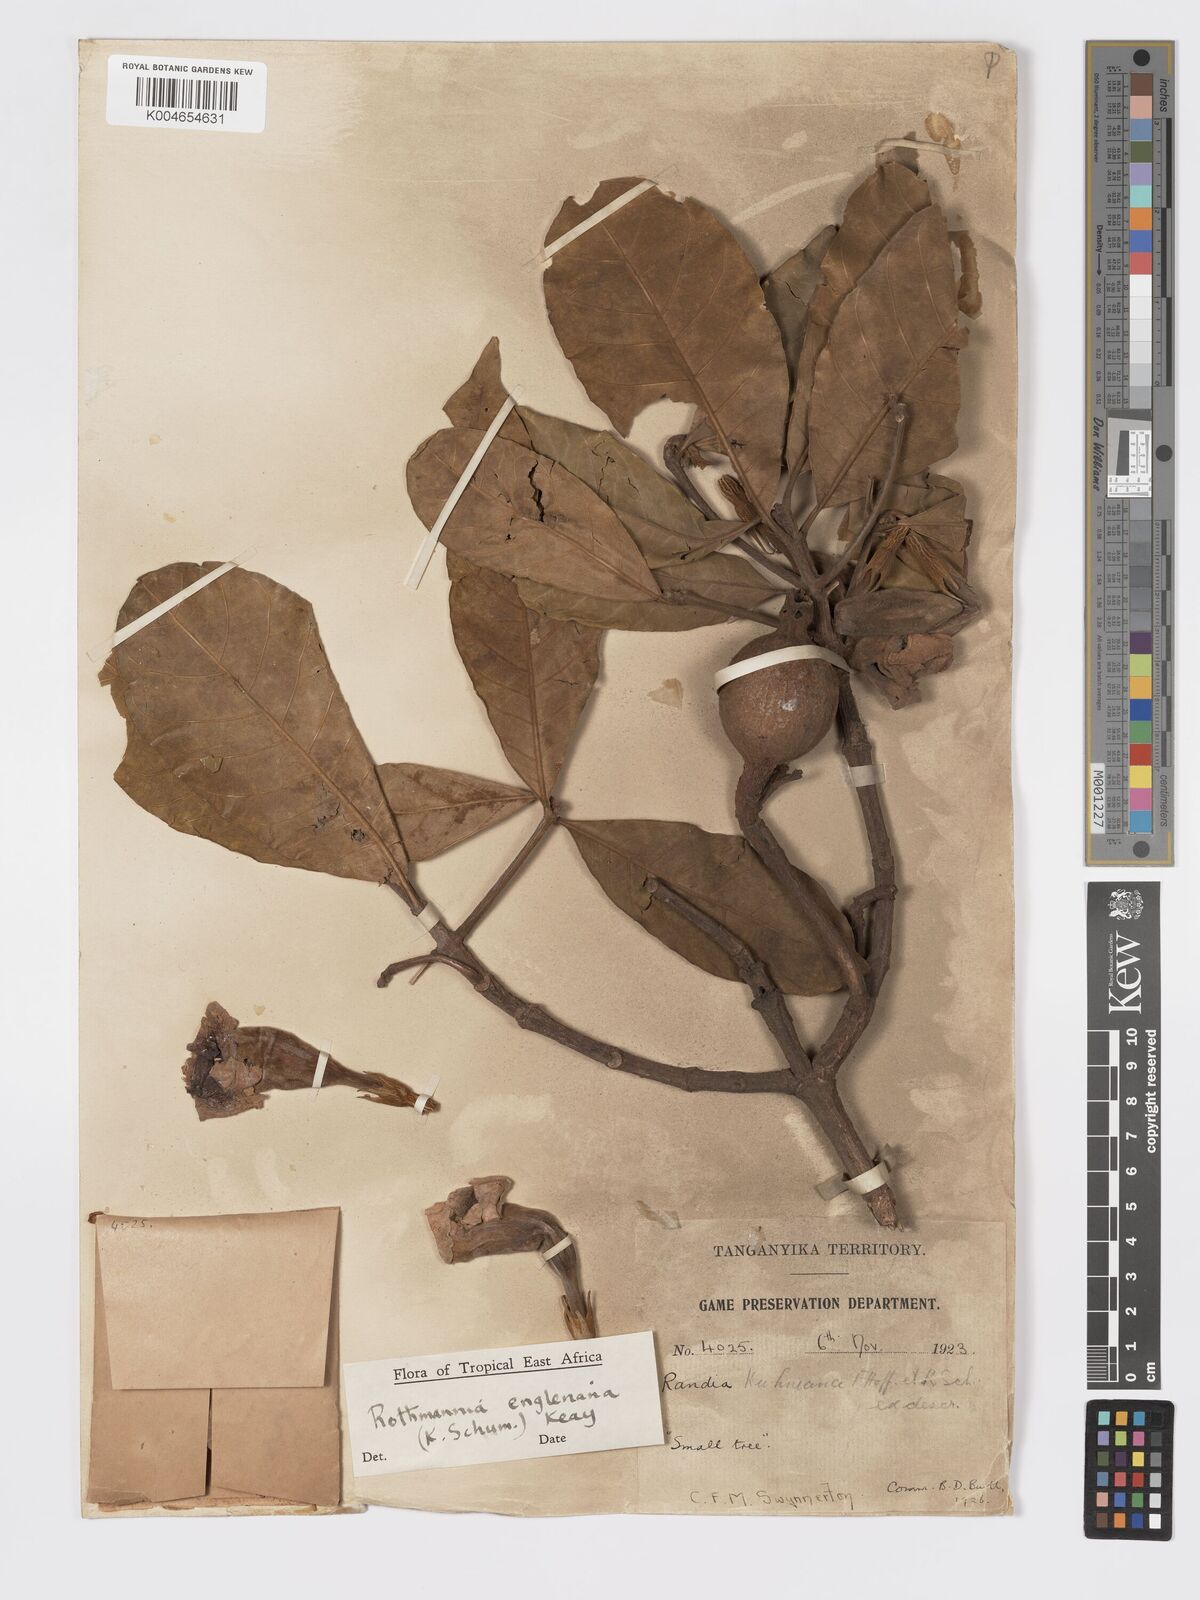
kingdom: Plantae
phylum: Tracheophyta
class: Magnoliopsida
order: Gentianales
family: Rubiaceae
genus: Rothmannia
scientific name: Rothmannia engleriana
